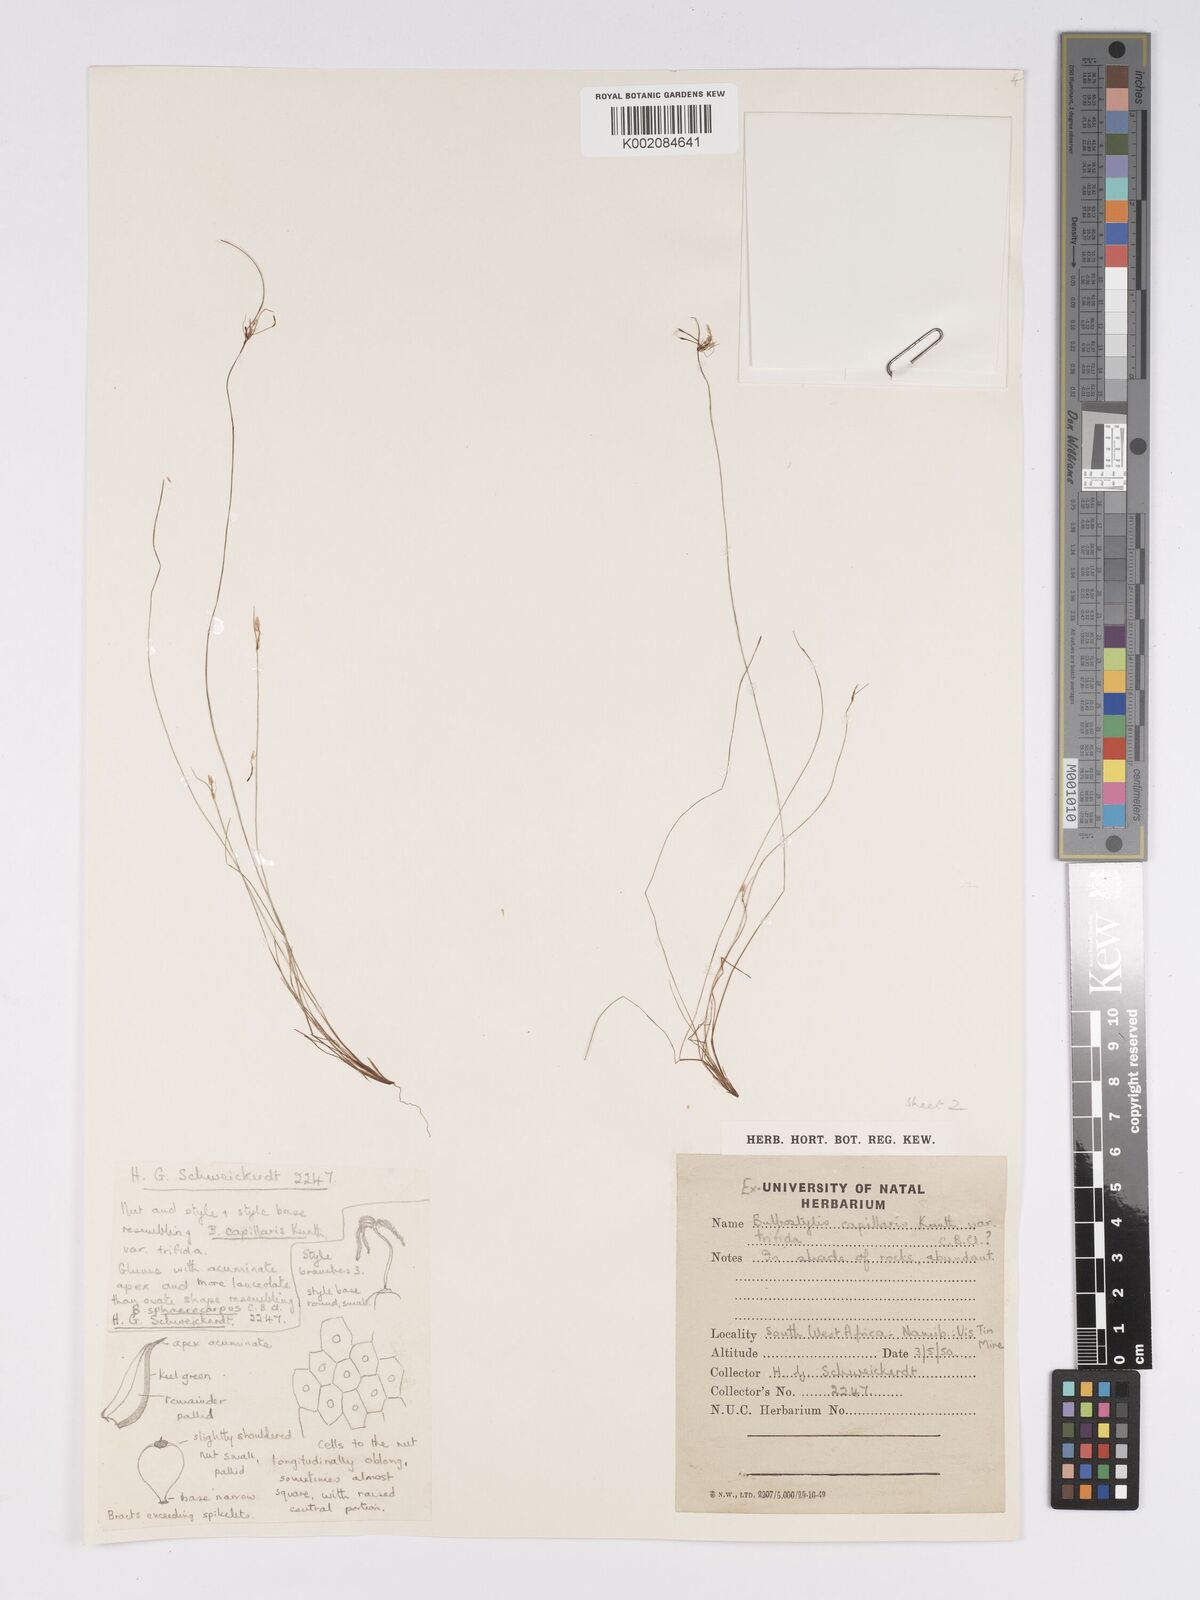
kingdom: Plantae
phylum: Tracheophyta
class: Liliopsida
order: Poales
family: Cyperaceae
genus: Bulbostylis
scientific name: Bulbostylis mucronata
